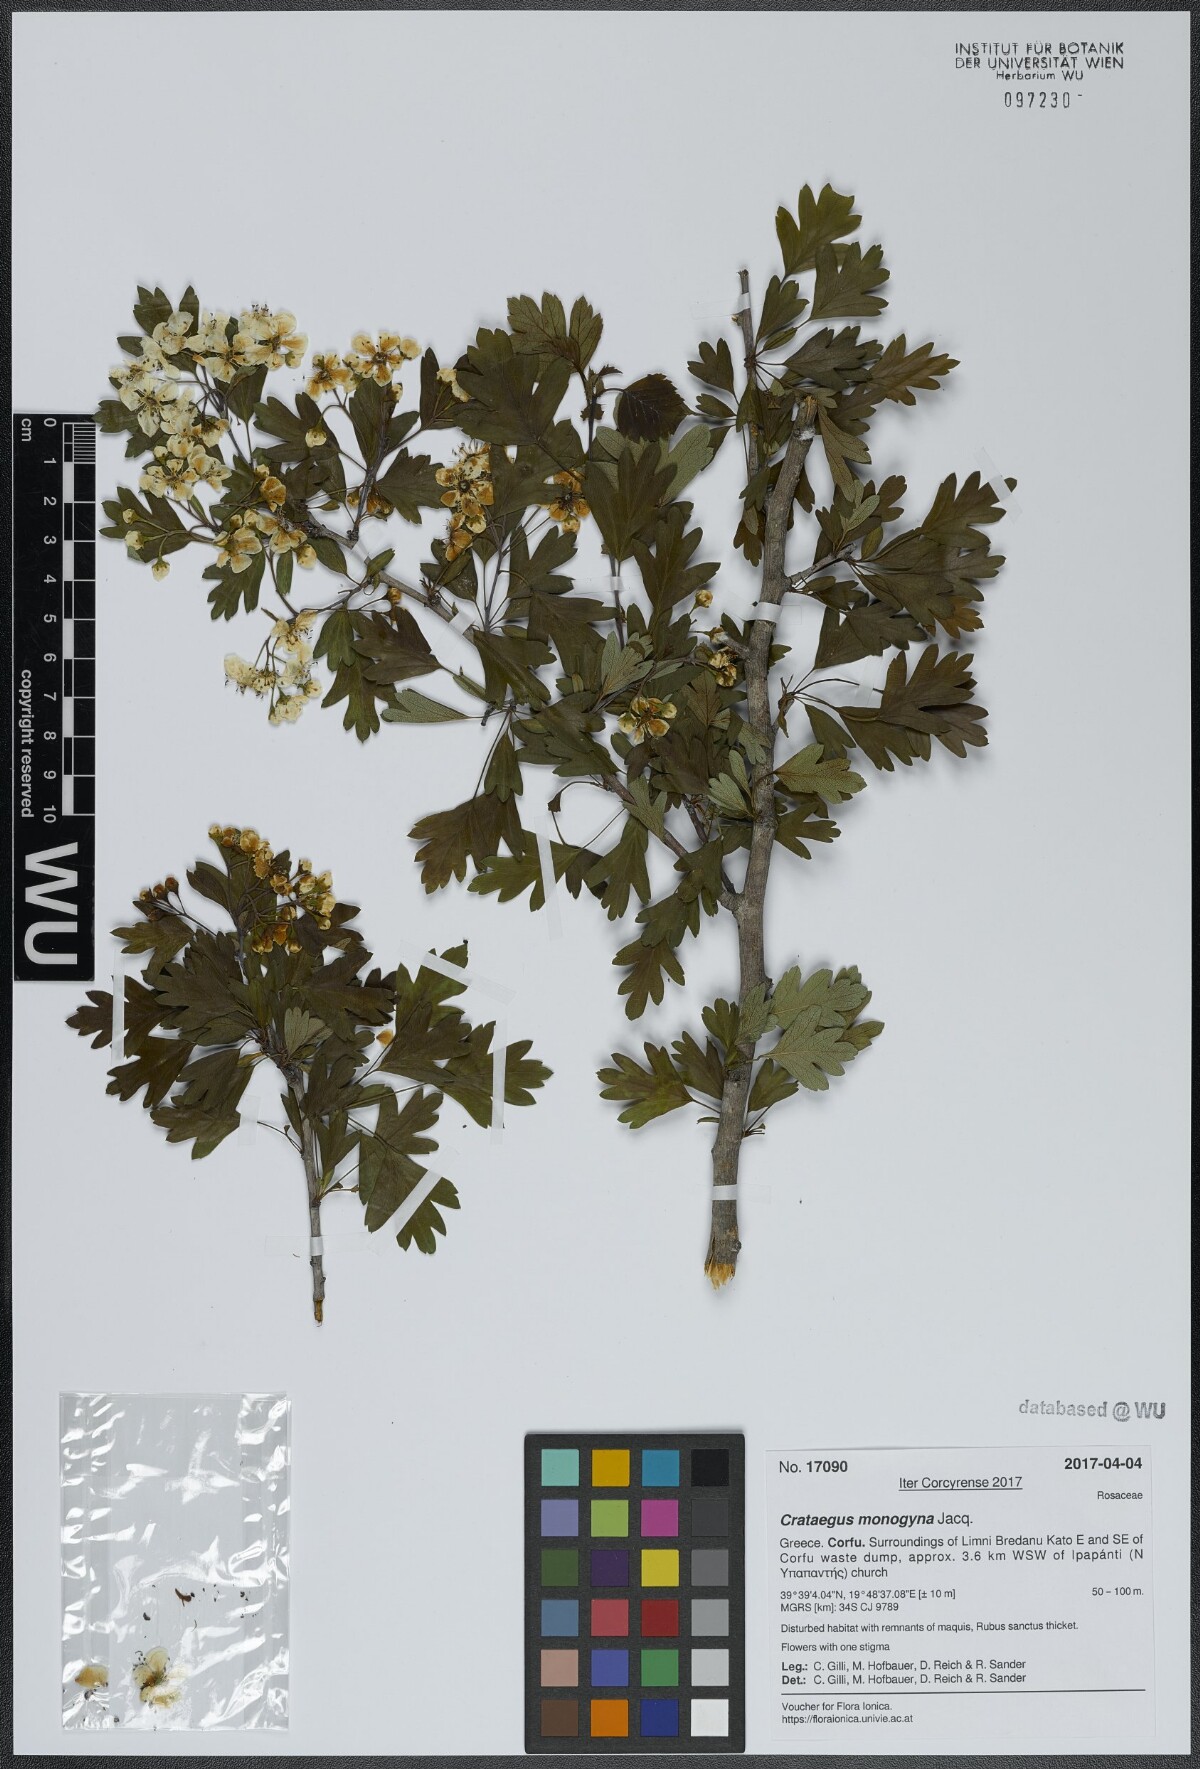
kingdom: Plantae
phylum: Tracheophyta
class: Magnoliopsida
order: Rosales
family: Rosaceae
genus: Crataegus
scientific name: Crataegus monogyna
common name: Hawthorn
